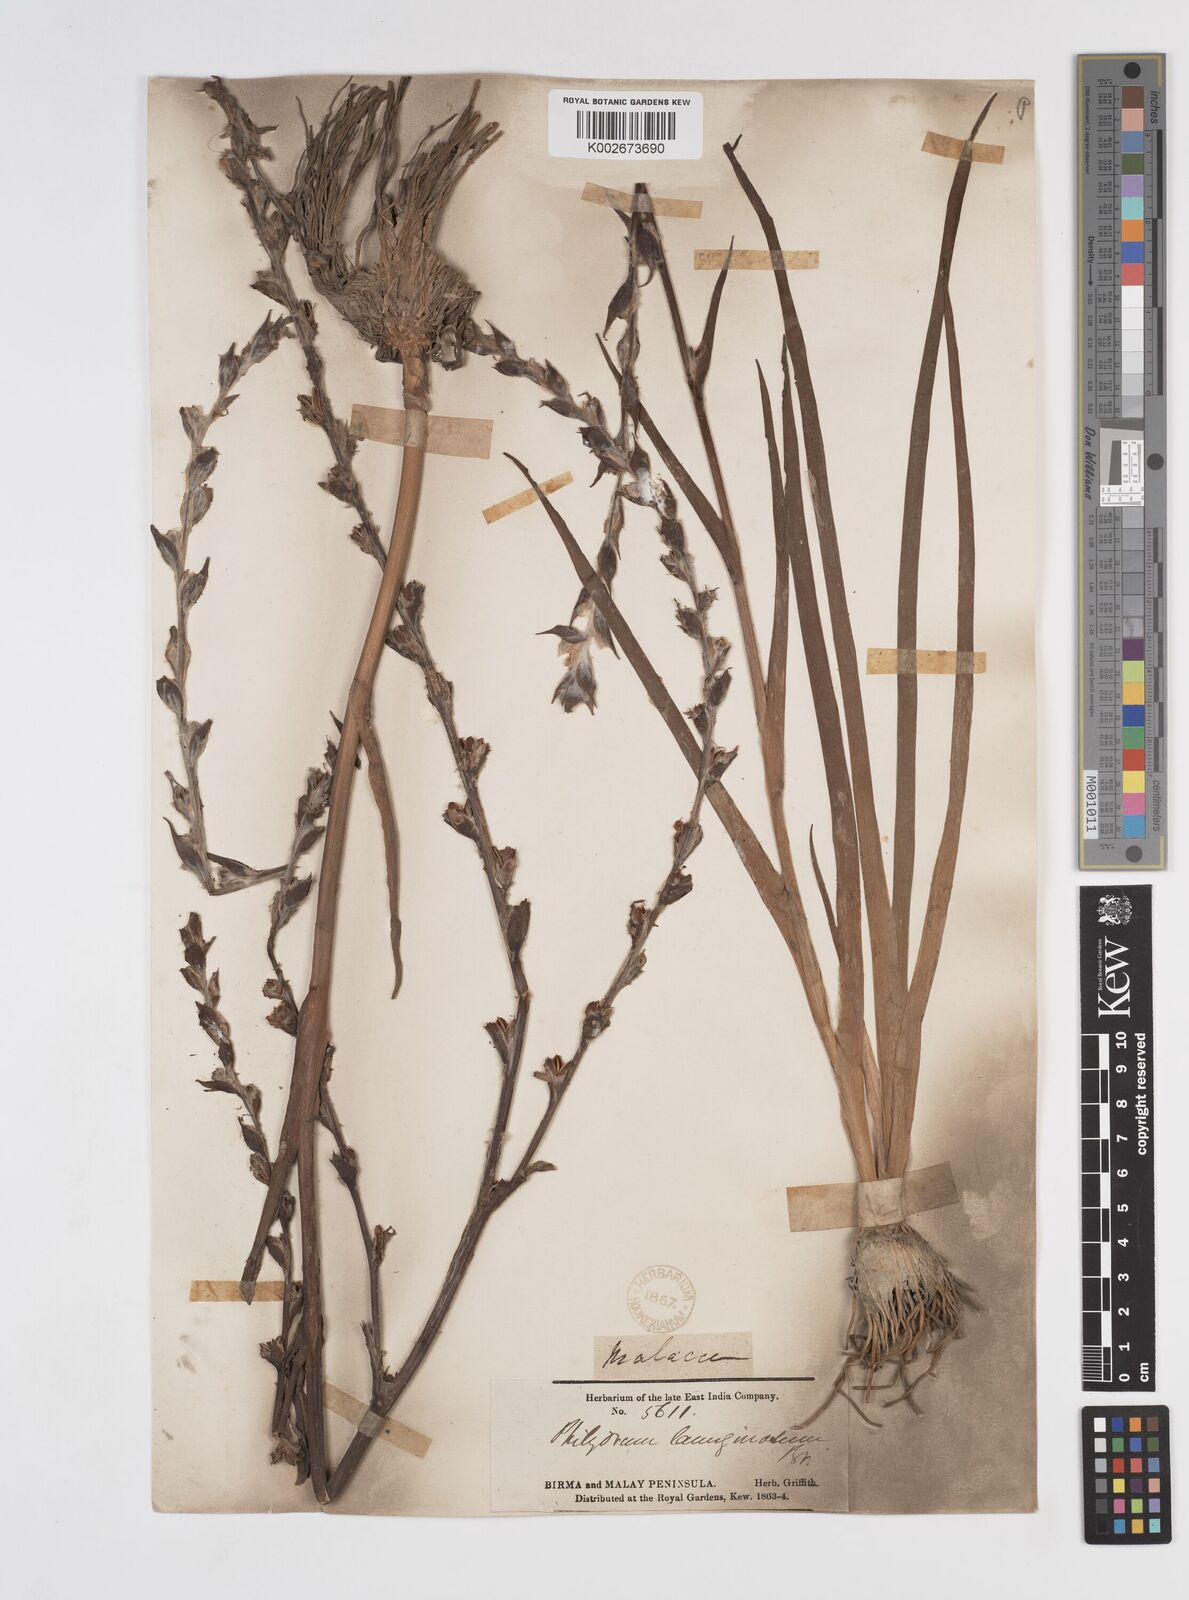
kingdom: Plantae
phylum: Tracheophyta
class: Liliopsida
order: Commelinales
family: Philydraceae
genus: Philydrum
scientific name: Philydrum lanuginosum
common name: Woolly frog's mouth
